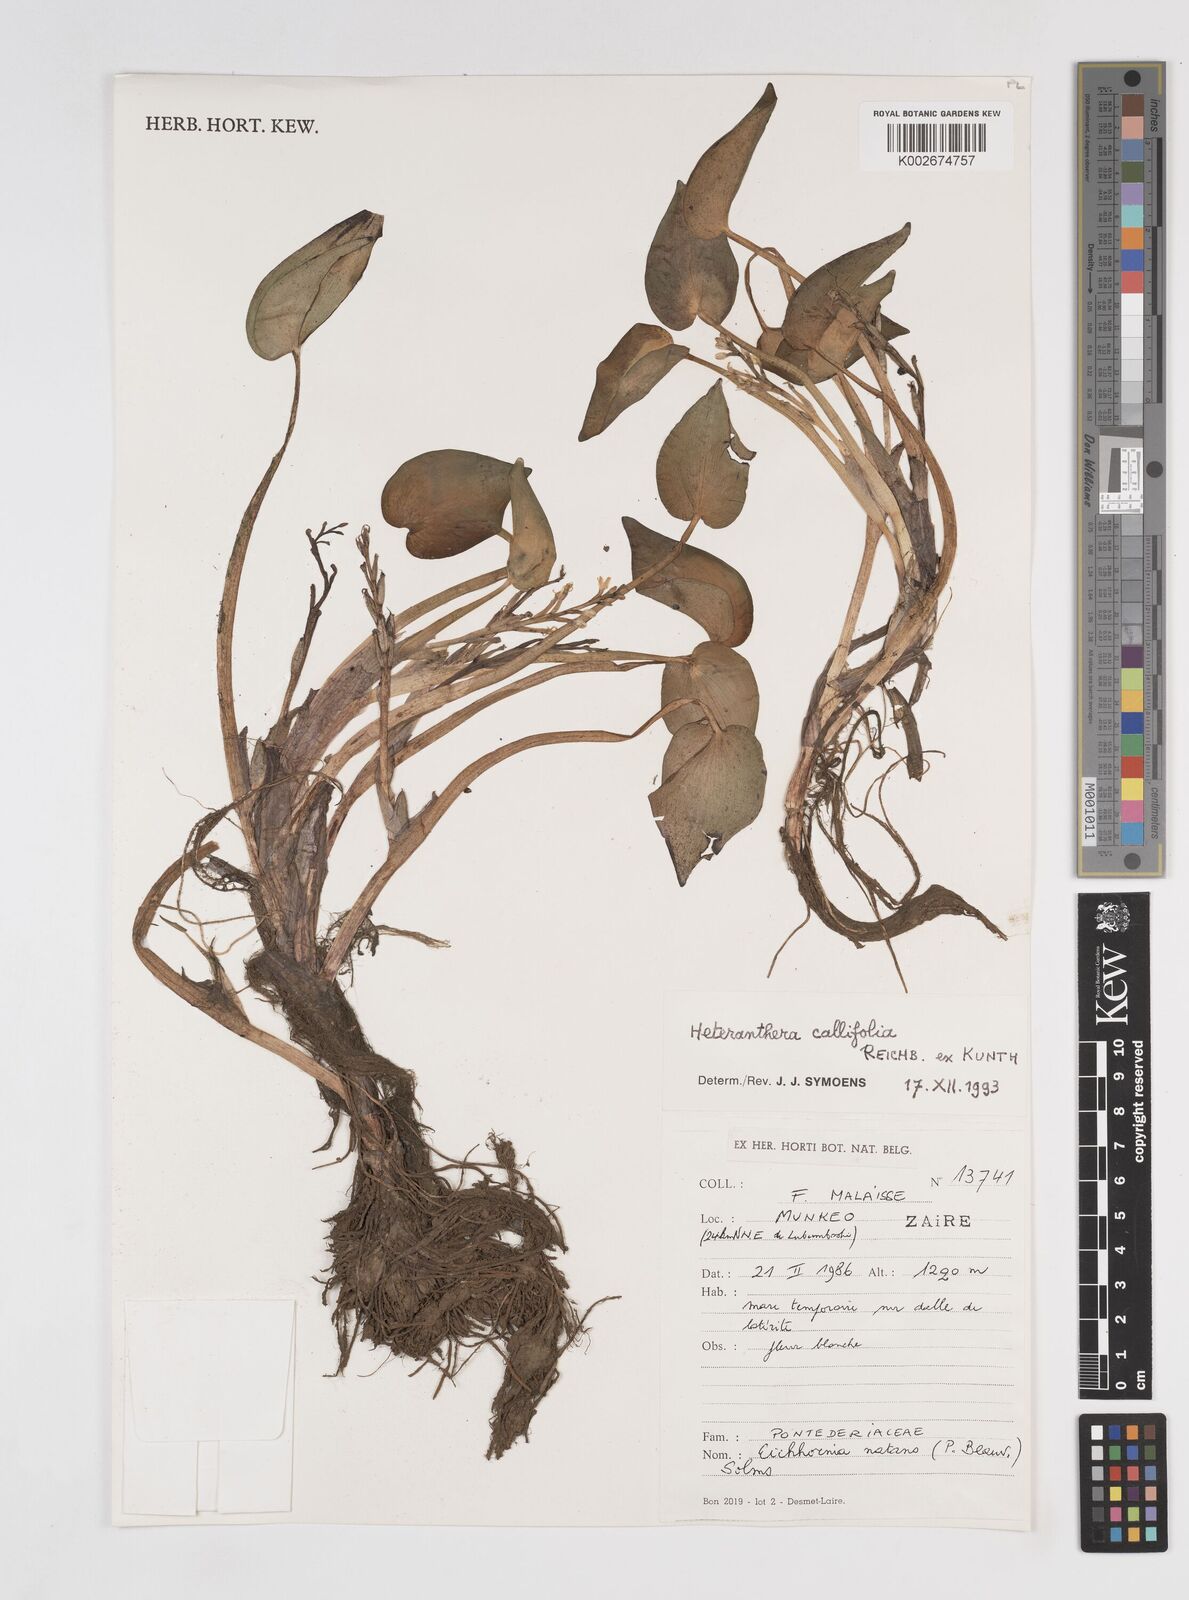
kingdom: Plantae
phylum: Tracheophyta
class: Liliopsida
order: Commelinales
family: Pontederiaceae
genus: Heteranthera
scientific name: Heteranthera callifolia
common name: Mud plantain
